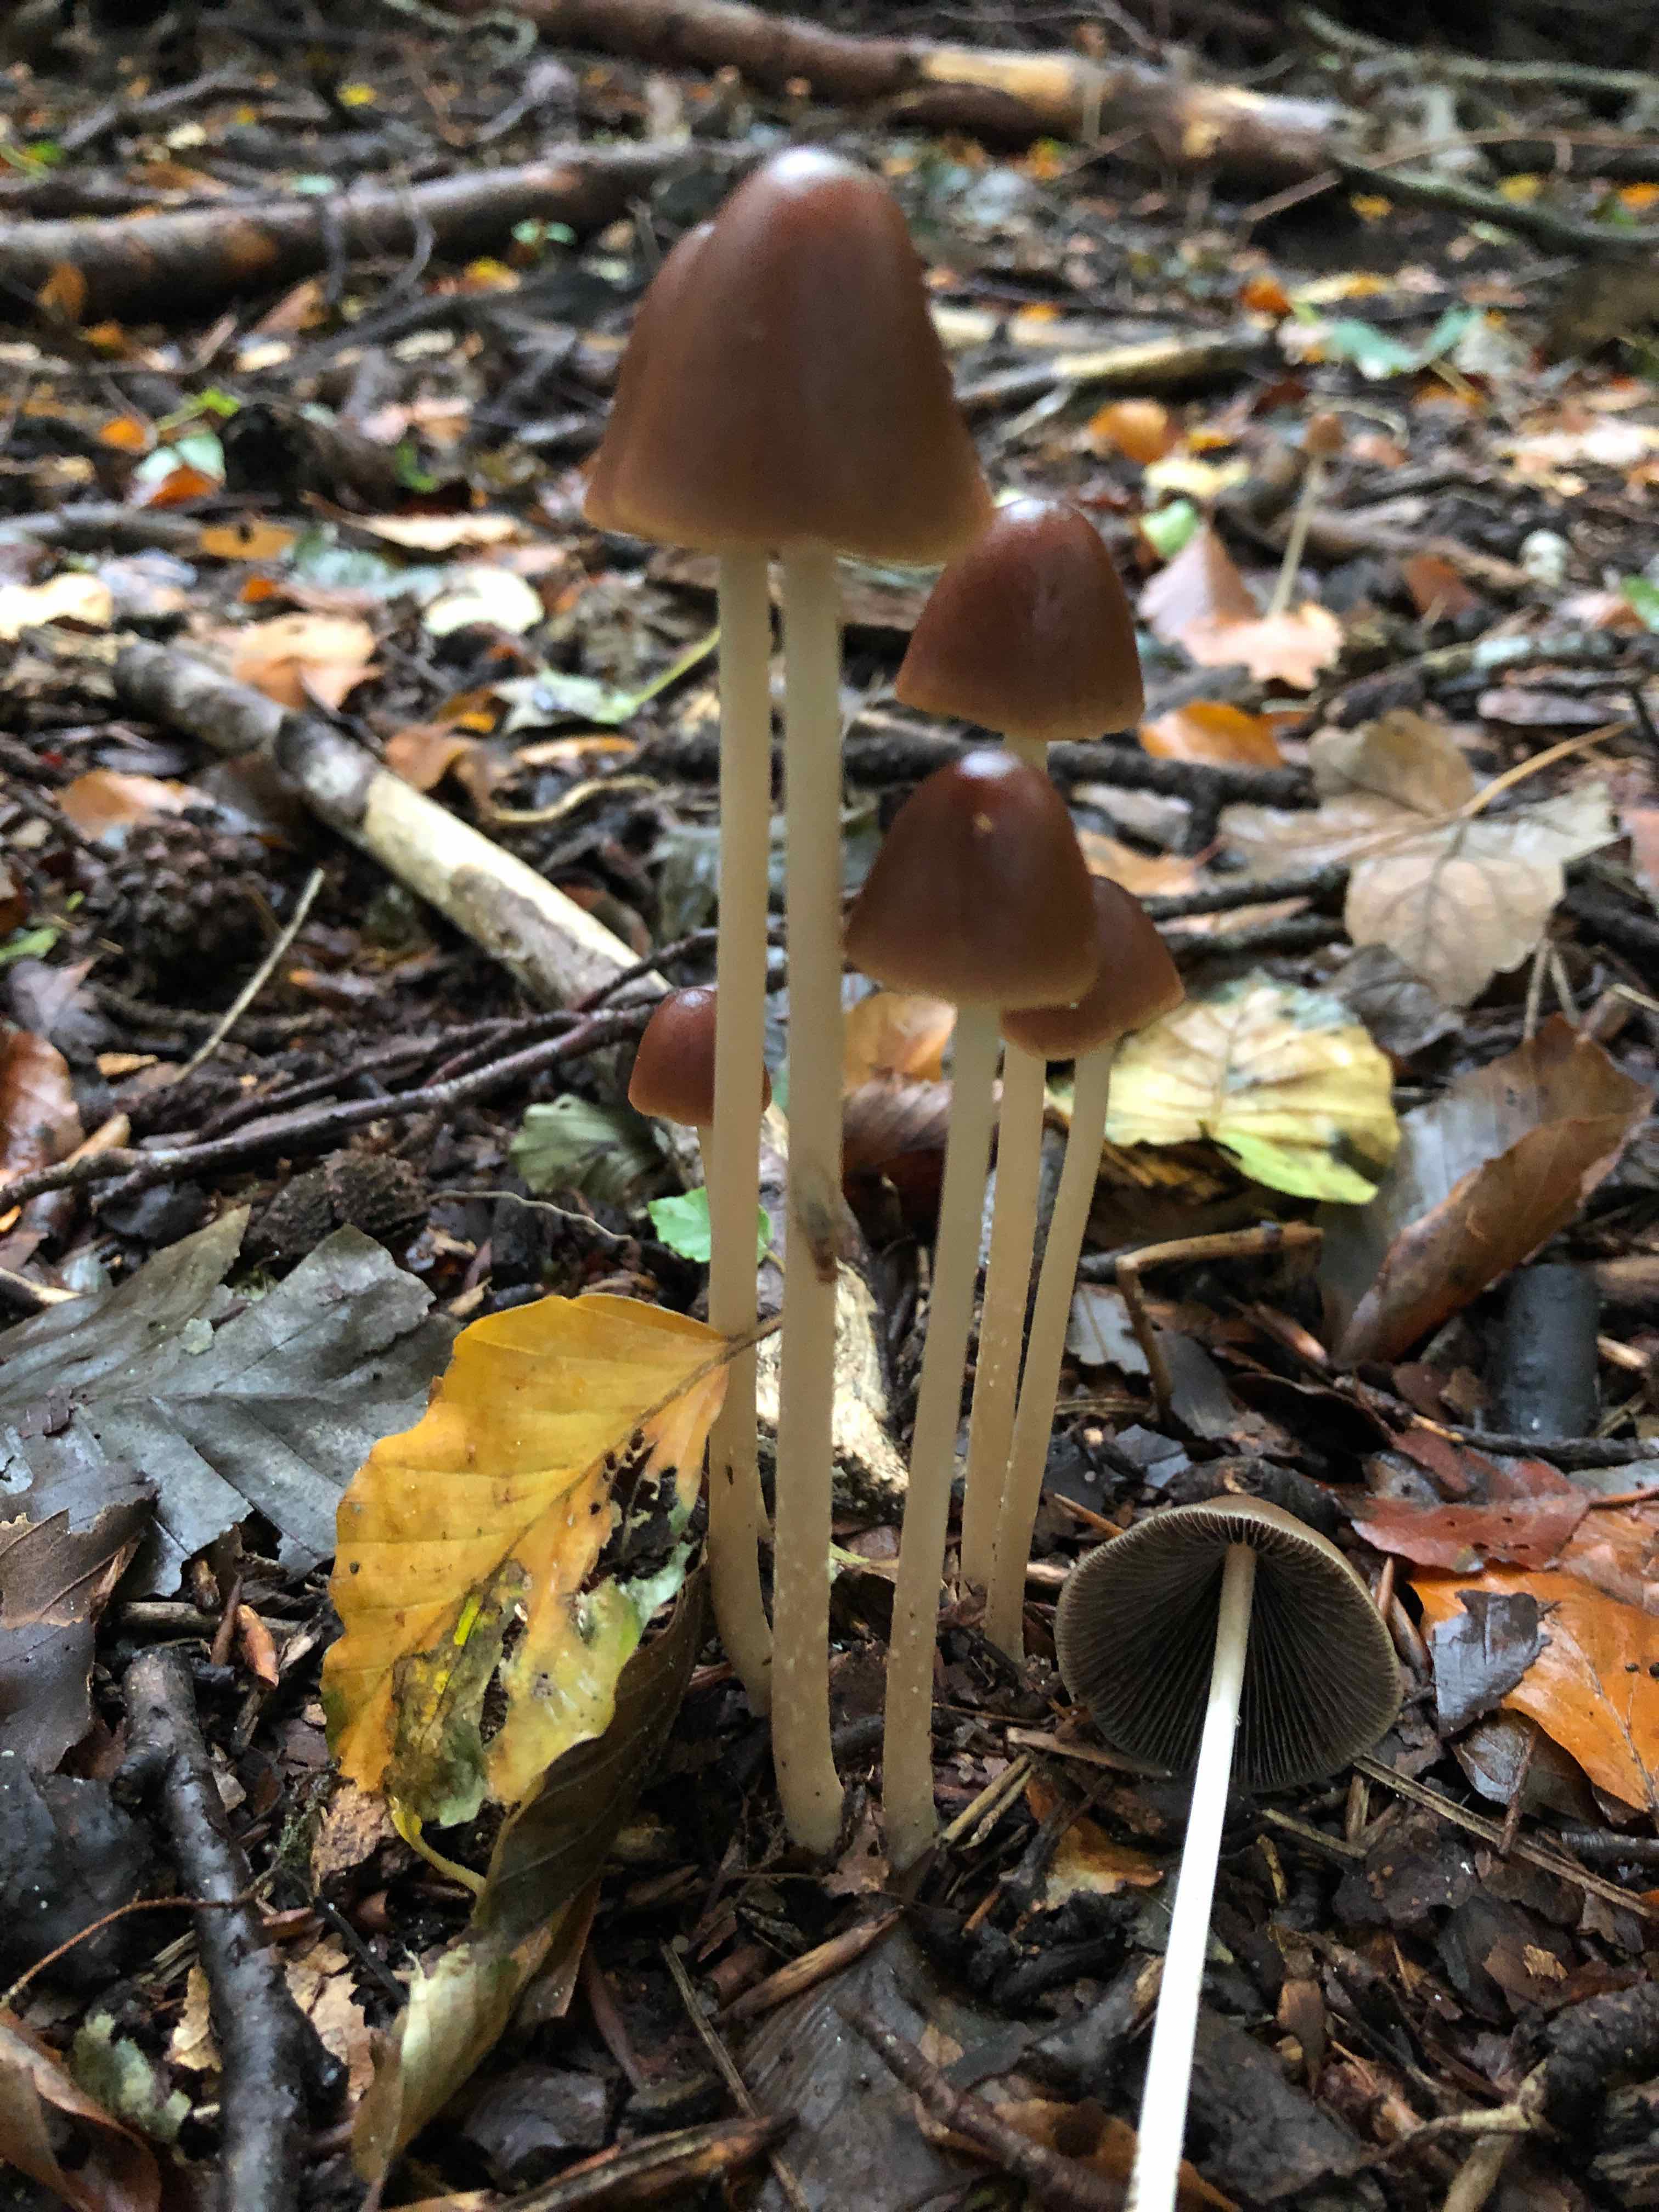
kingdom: Fungi
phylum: Basidiomycota
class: Agaricomycetes
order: Agaricales
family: Psathyrellaceae
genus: Parasola
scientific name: Parasola conopilea
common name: kegle-hjulhat
